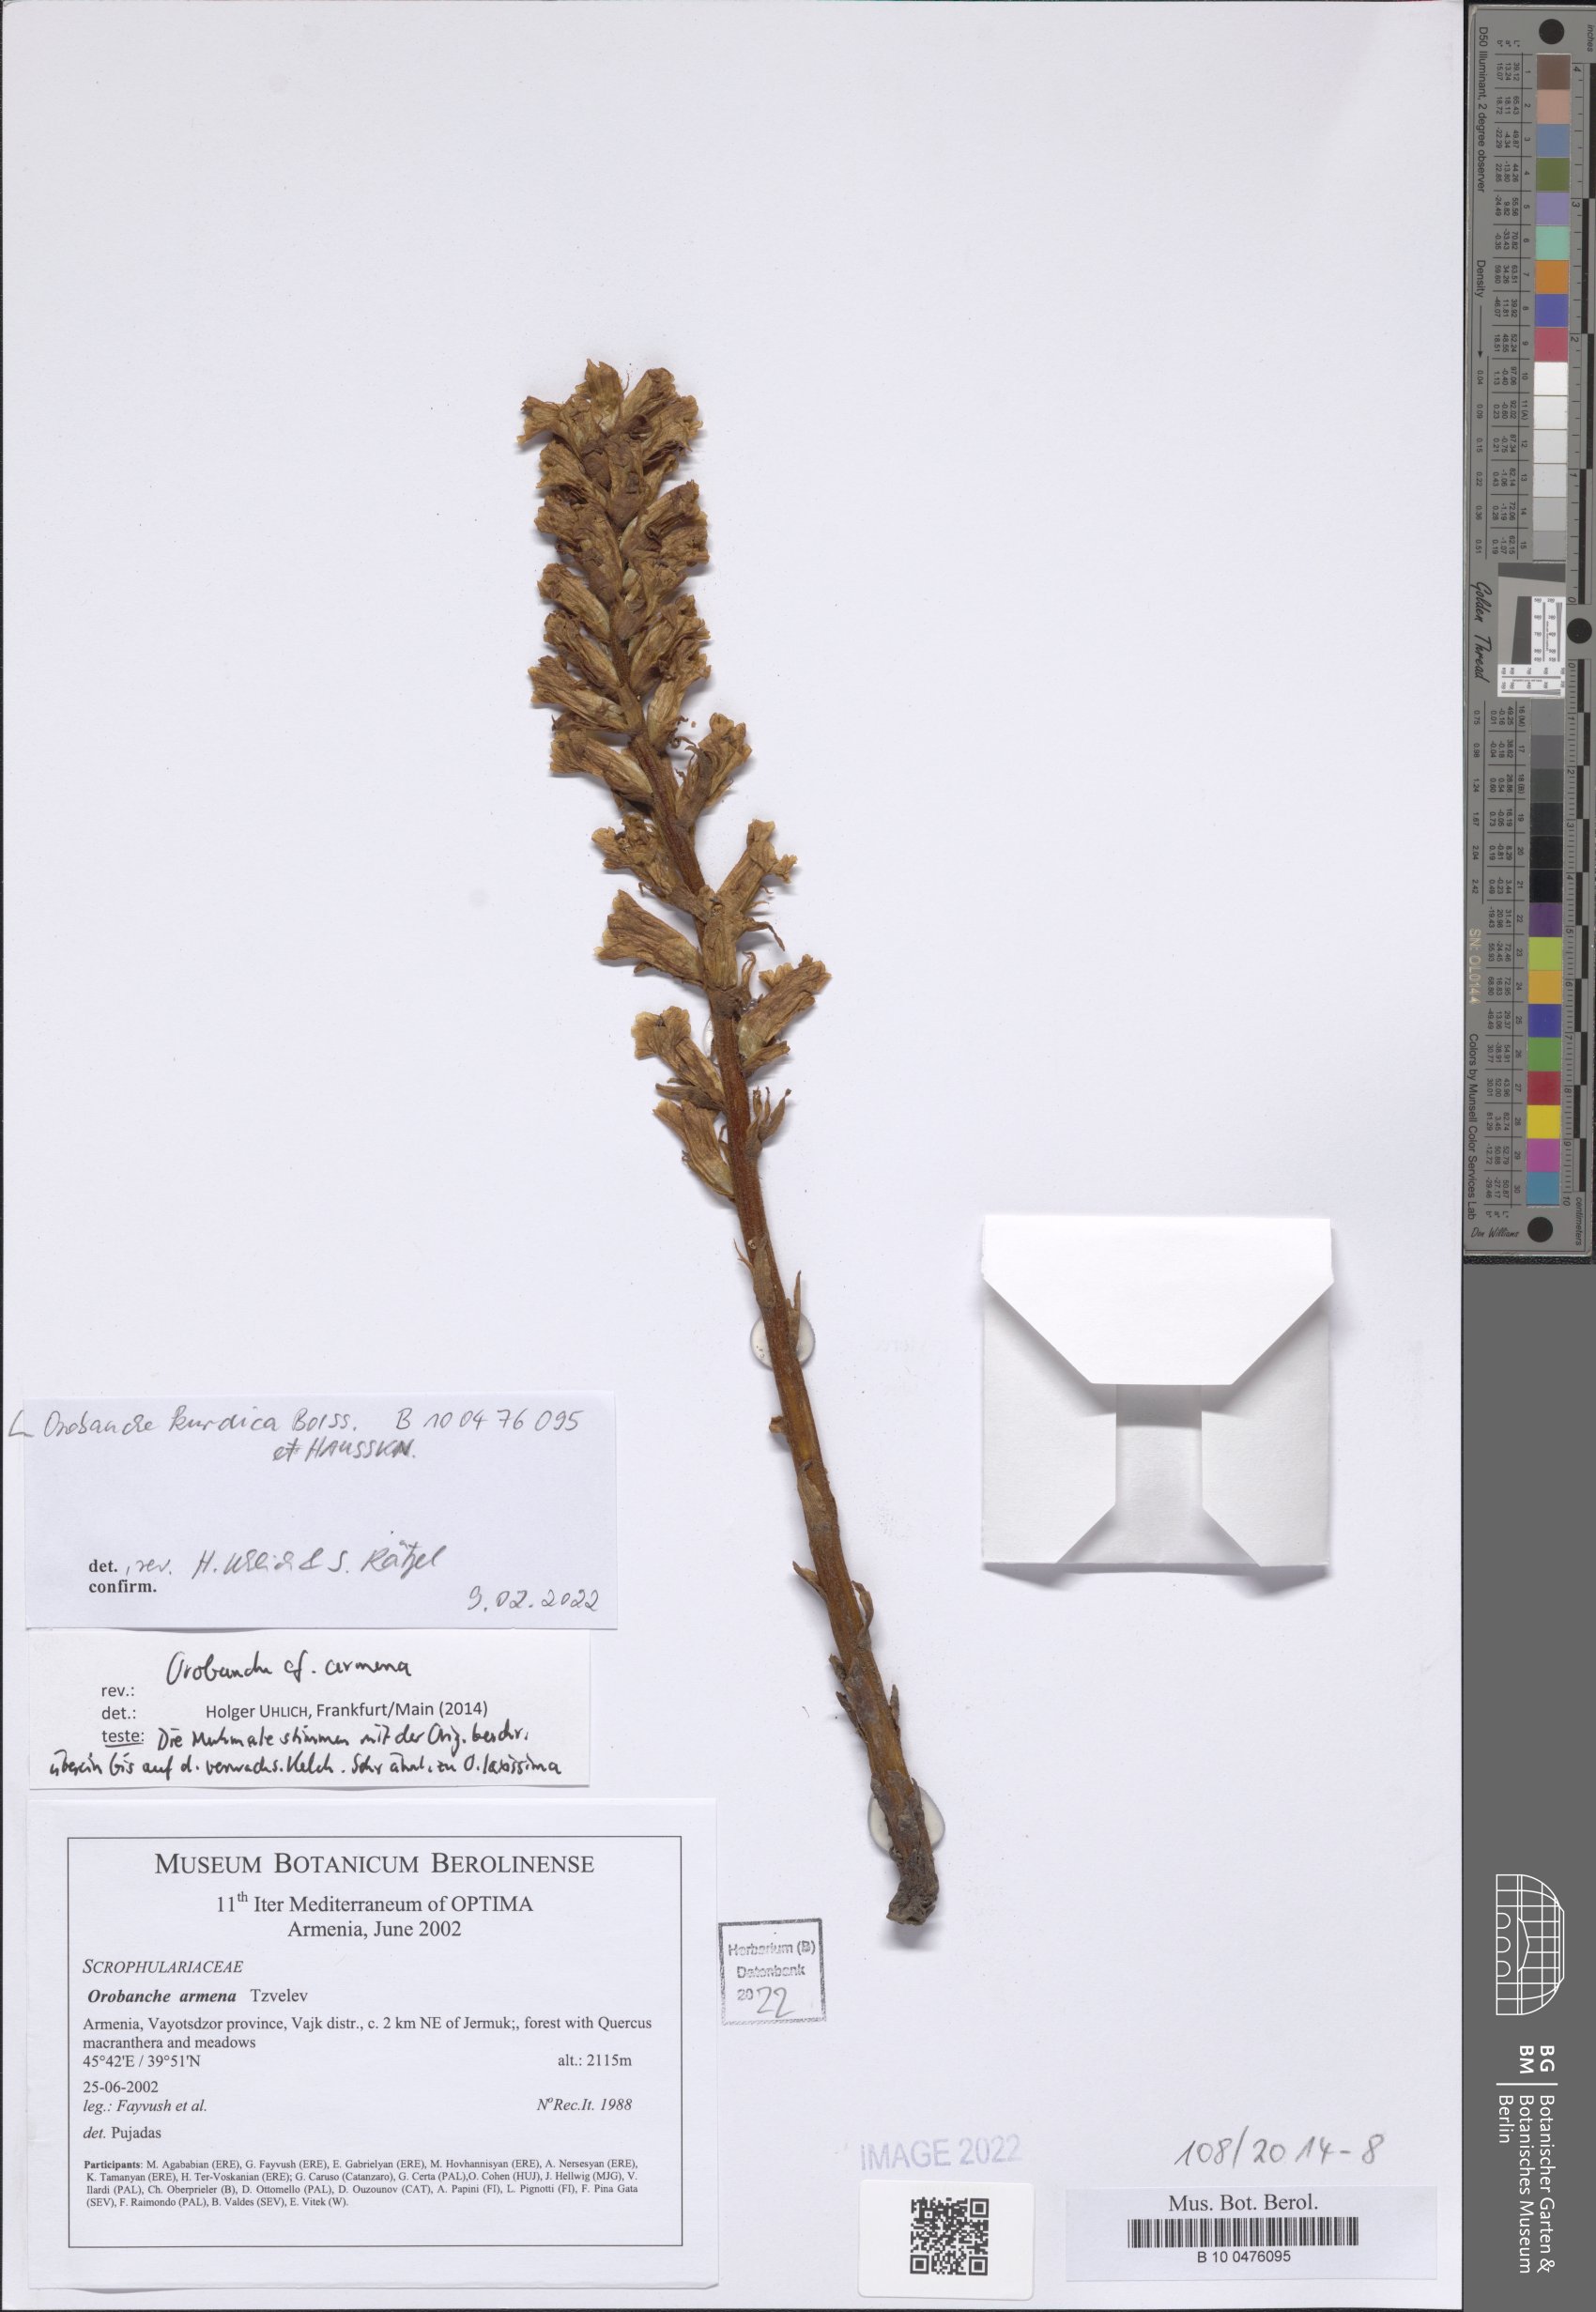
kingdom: Plantae
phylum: Tracheophyta
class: Magnoliopsida
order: Lamiales
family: Orobanchaceae
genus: Orobanche
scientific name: Orobanche kurdica
